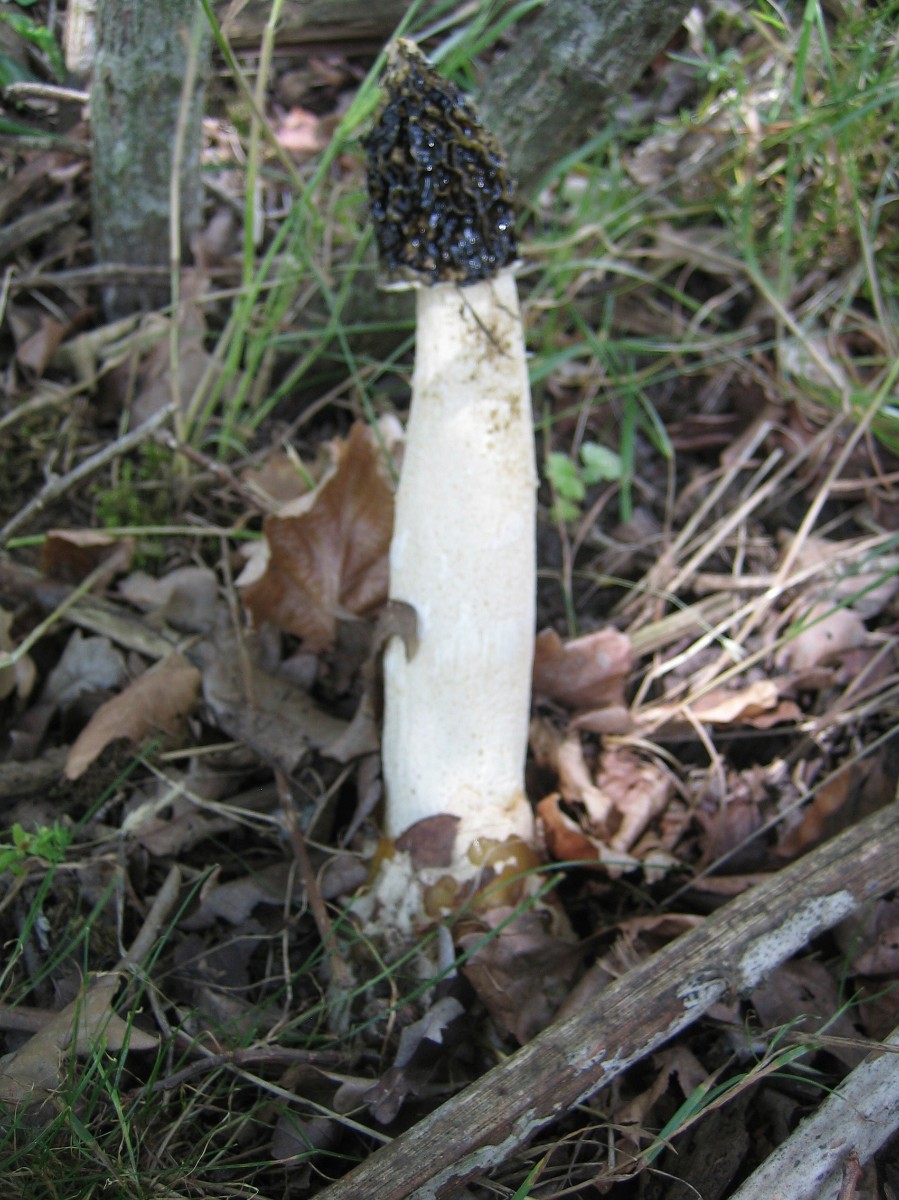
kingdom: Fungi
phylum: Basidiomycota
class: Agaricomycetes
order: Phallales
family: Phallaceae
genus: Phallus
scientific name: Phallus impudicus
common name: almindelig stinksvamp
